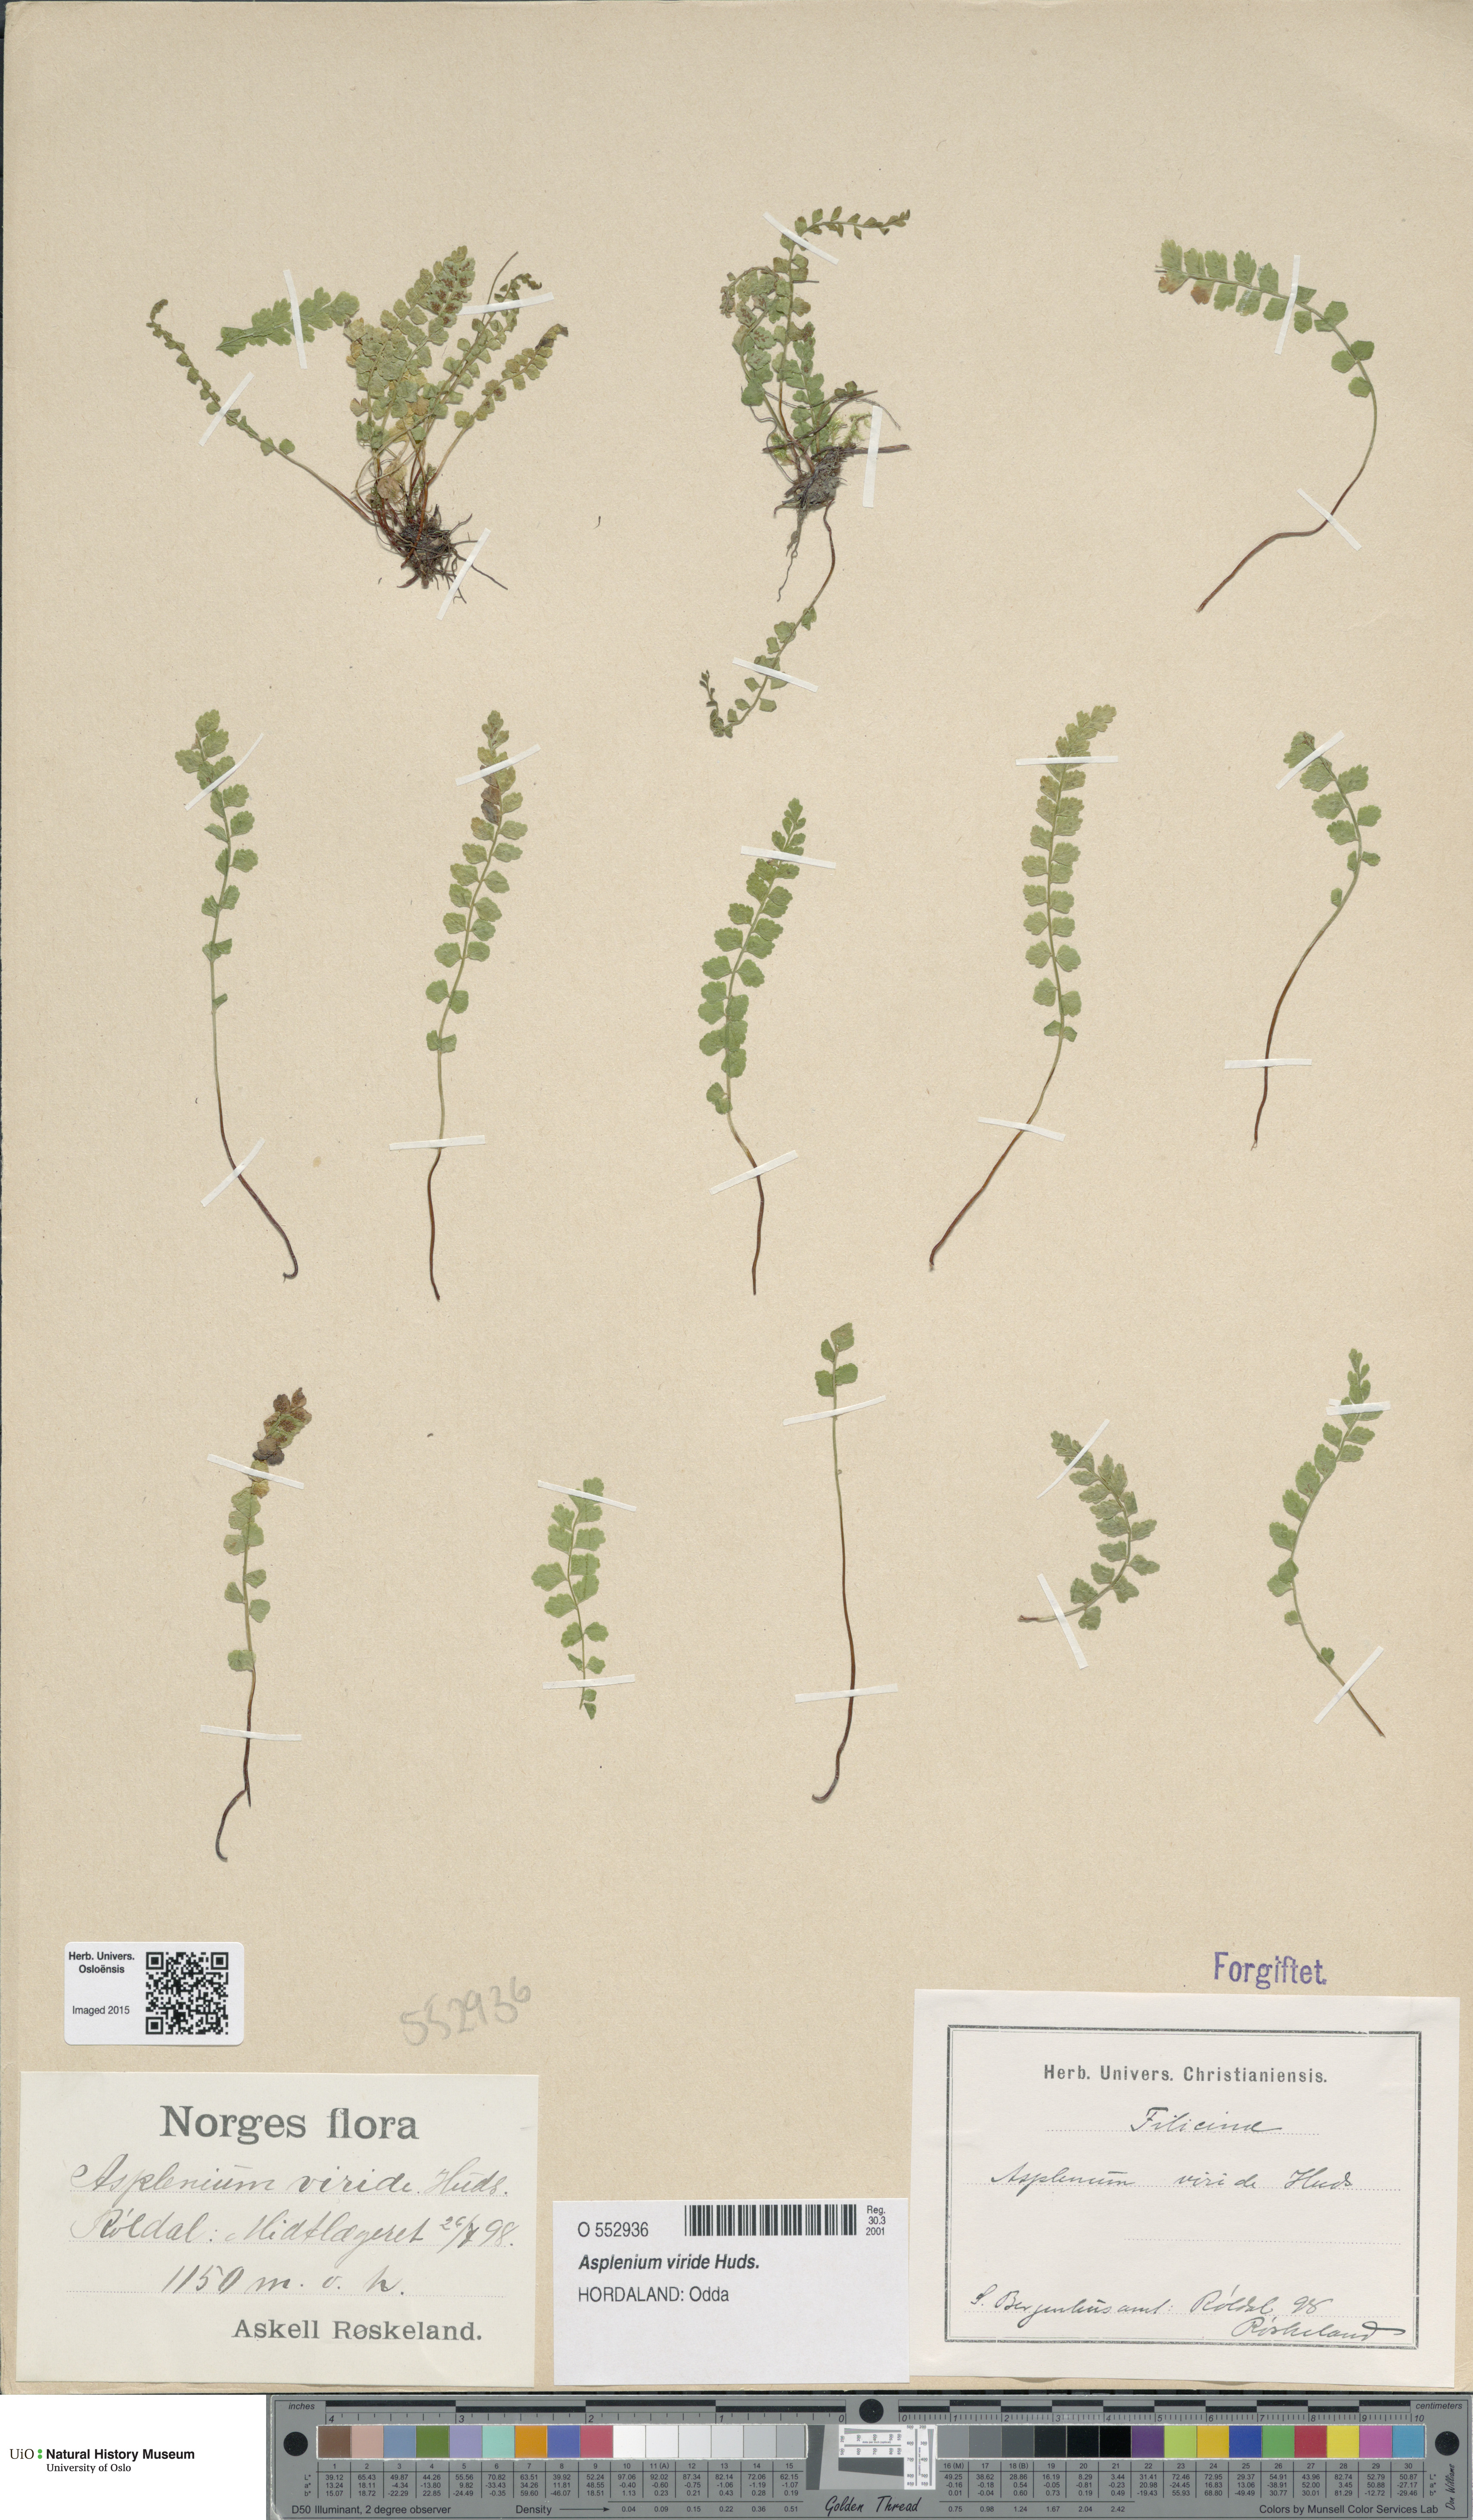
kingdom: Plantae
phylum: Tracheophyta
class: Polypodiopsida
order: Polypodiales
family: Aspleniaceae
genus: Asplenium
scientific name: Asplenium viride
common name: Green spleenwort
